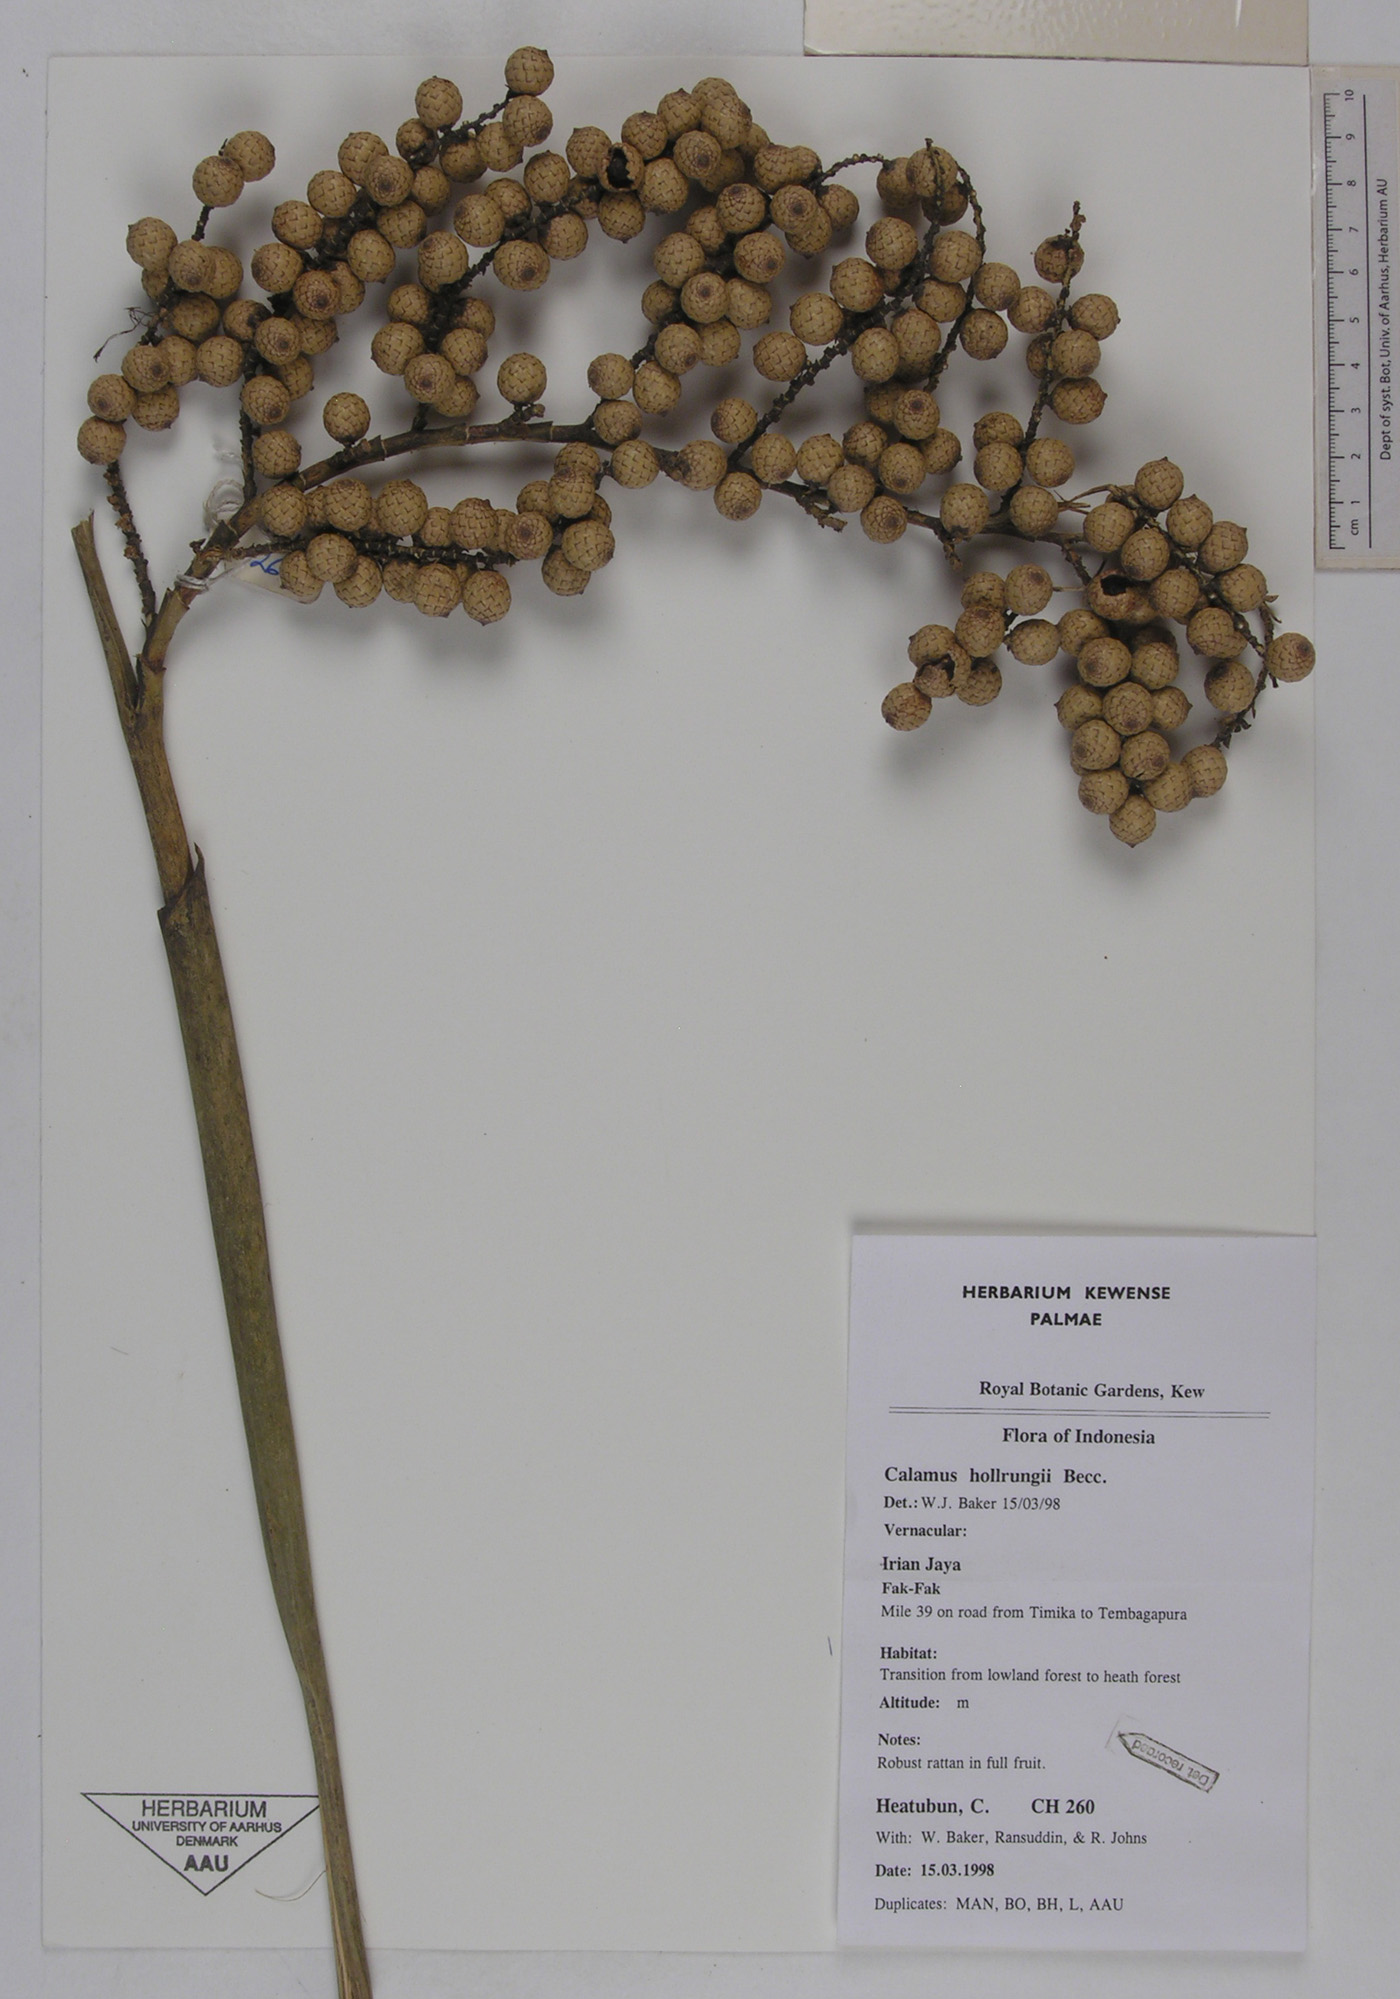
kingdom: Plantae
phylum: Tracheophyta
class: Liliopsida
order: Arecales
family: Arecaceae
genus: Calamus
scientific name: Calamus aruensis
